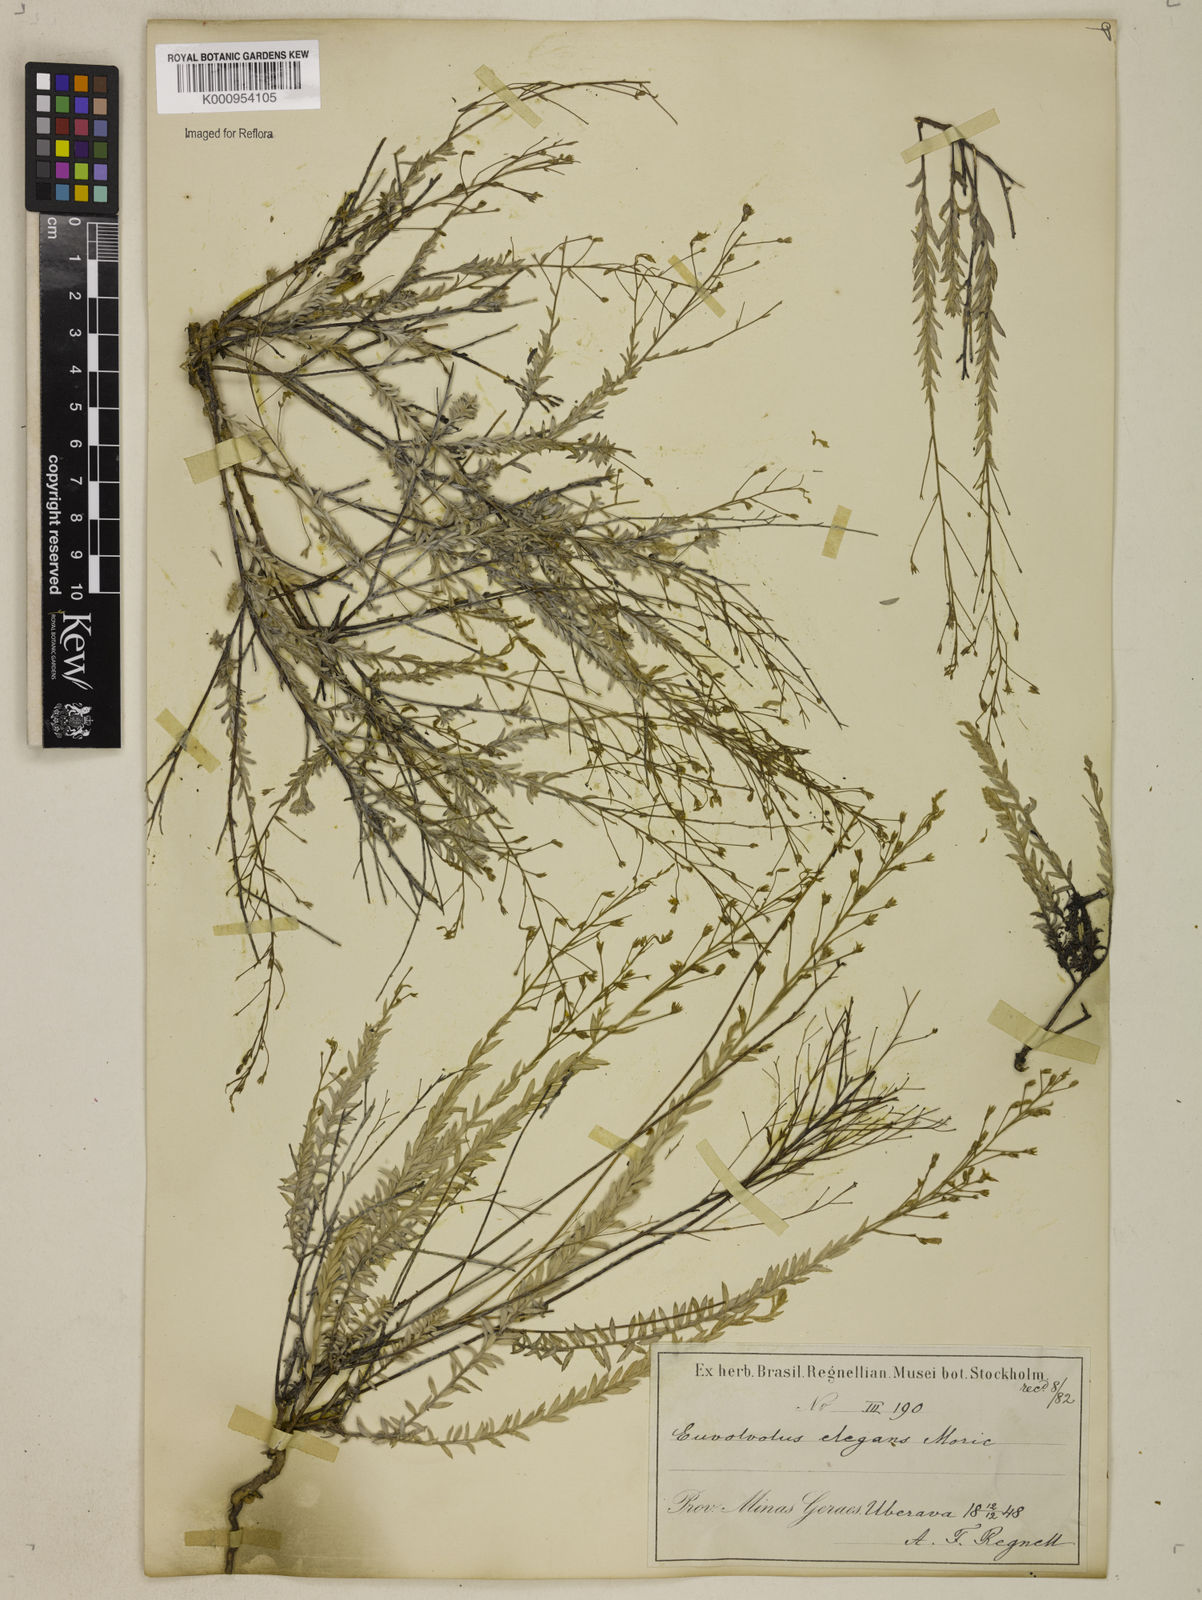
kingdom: Plantae
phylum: Tracheophyta
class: Magnoliopsida
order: Solanales
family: Convolvulaceae
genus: Evolvulus
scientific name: Evolvulus elegans
